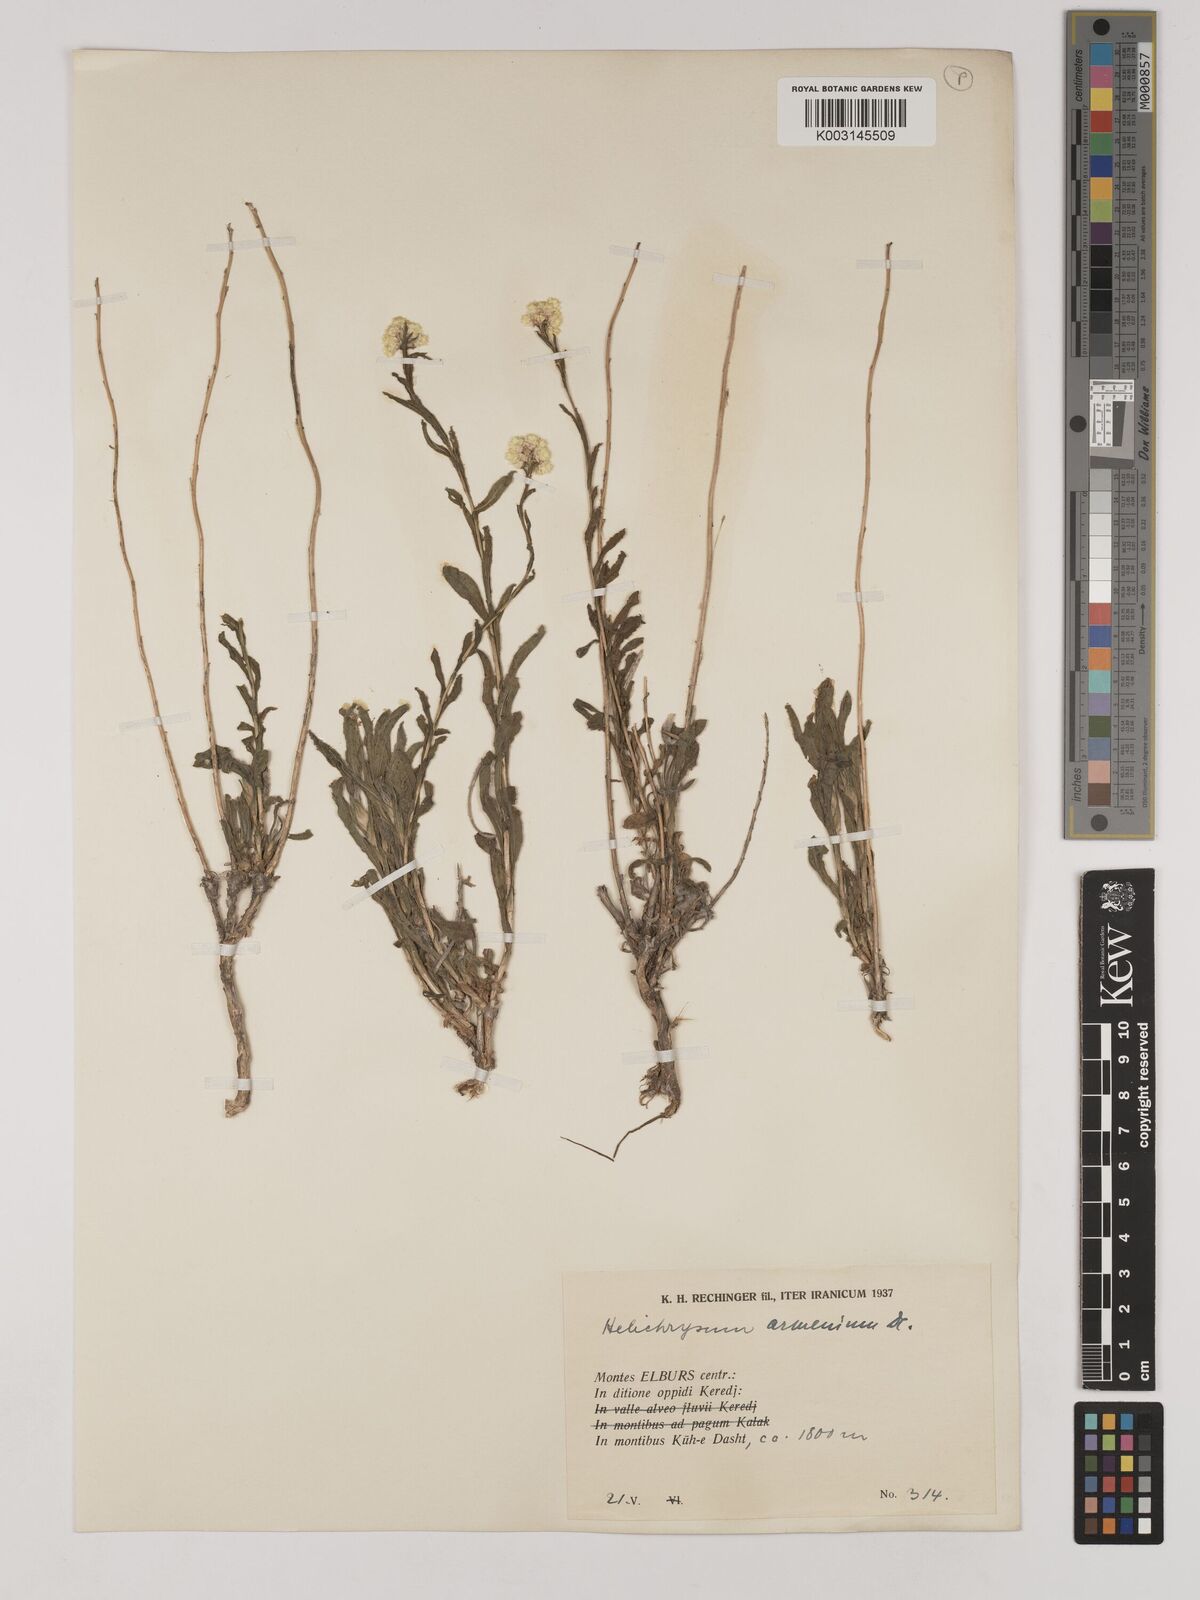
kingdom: Plantae
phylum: Tracheophyta
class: Magnoliopsida
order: Asterales
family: Asteraceae
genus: Helichrysum
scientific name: Helichrysum armenium
